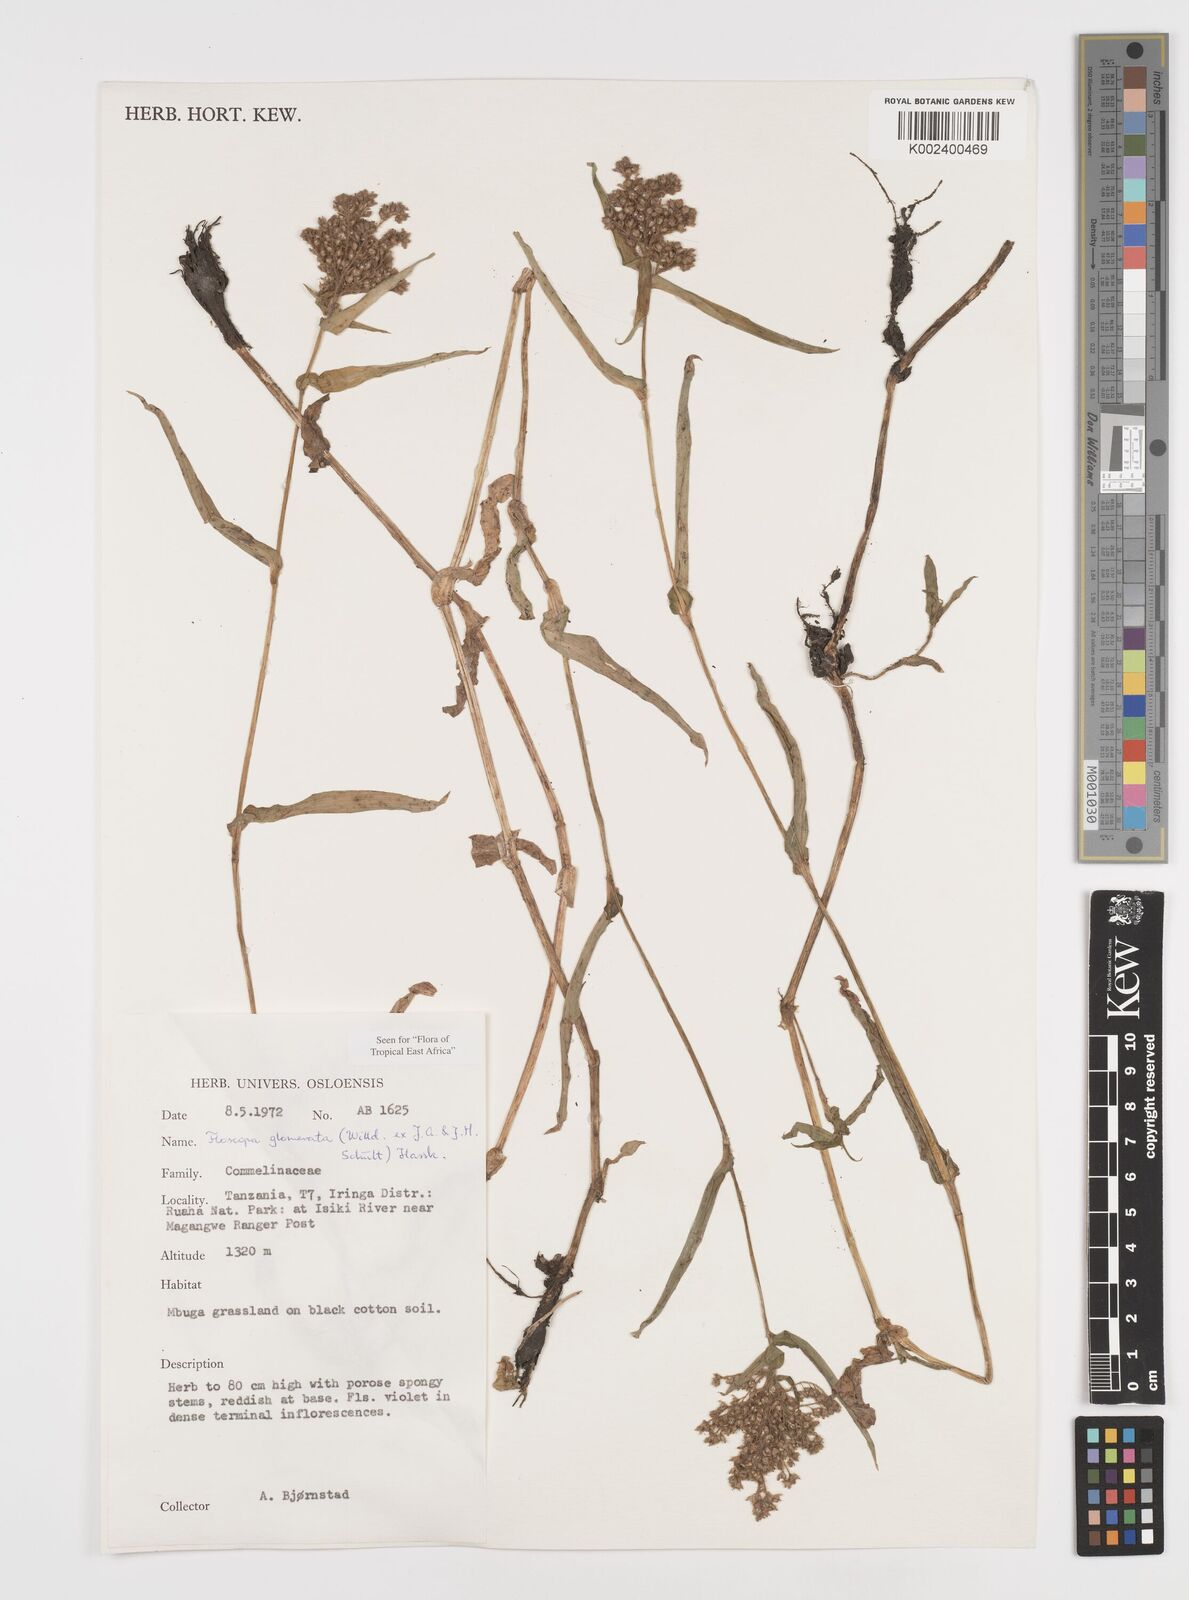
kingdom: Plantae
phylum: Tracheophyta
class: Liliopsida
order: Commelinales
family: Commelinaceae
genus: Floscopa
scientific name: Floscopa glomerata
